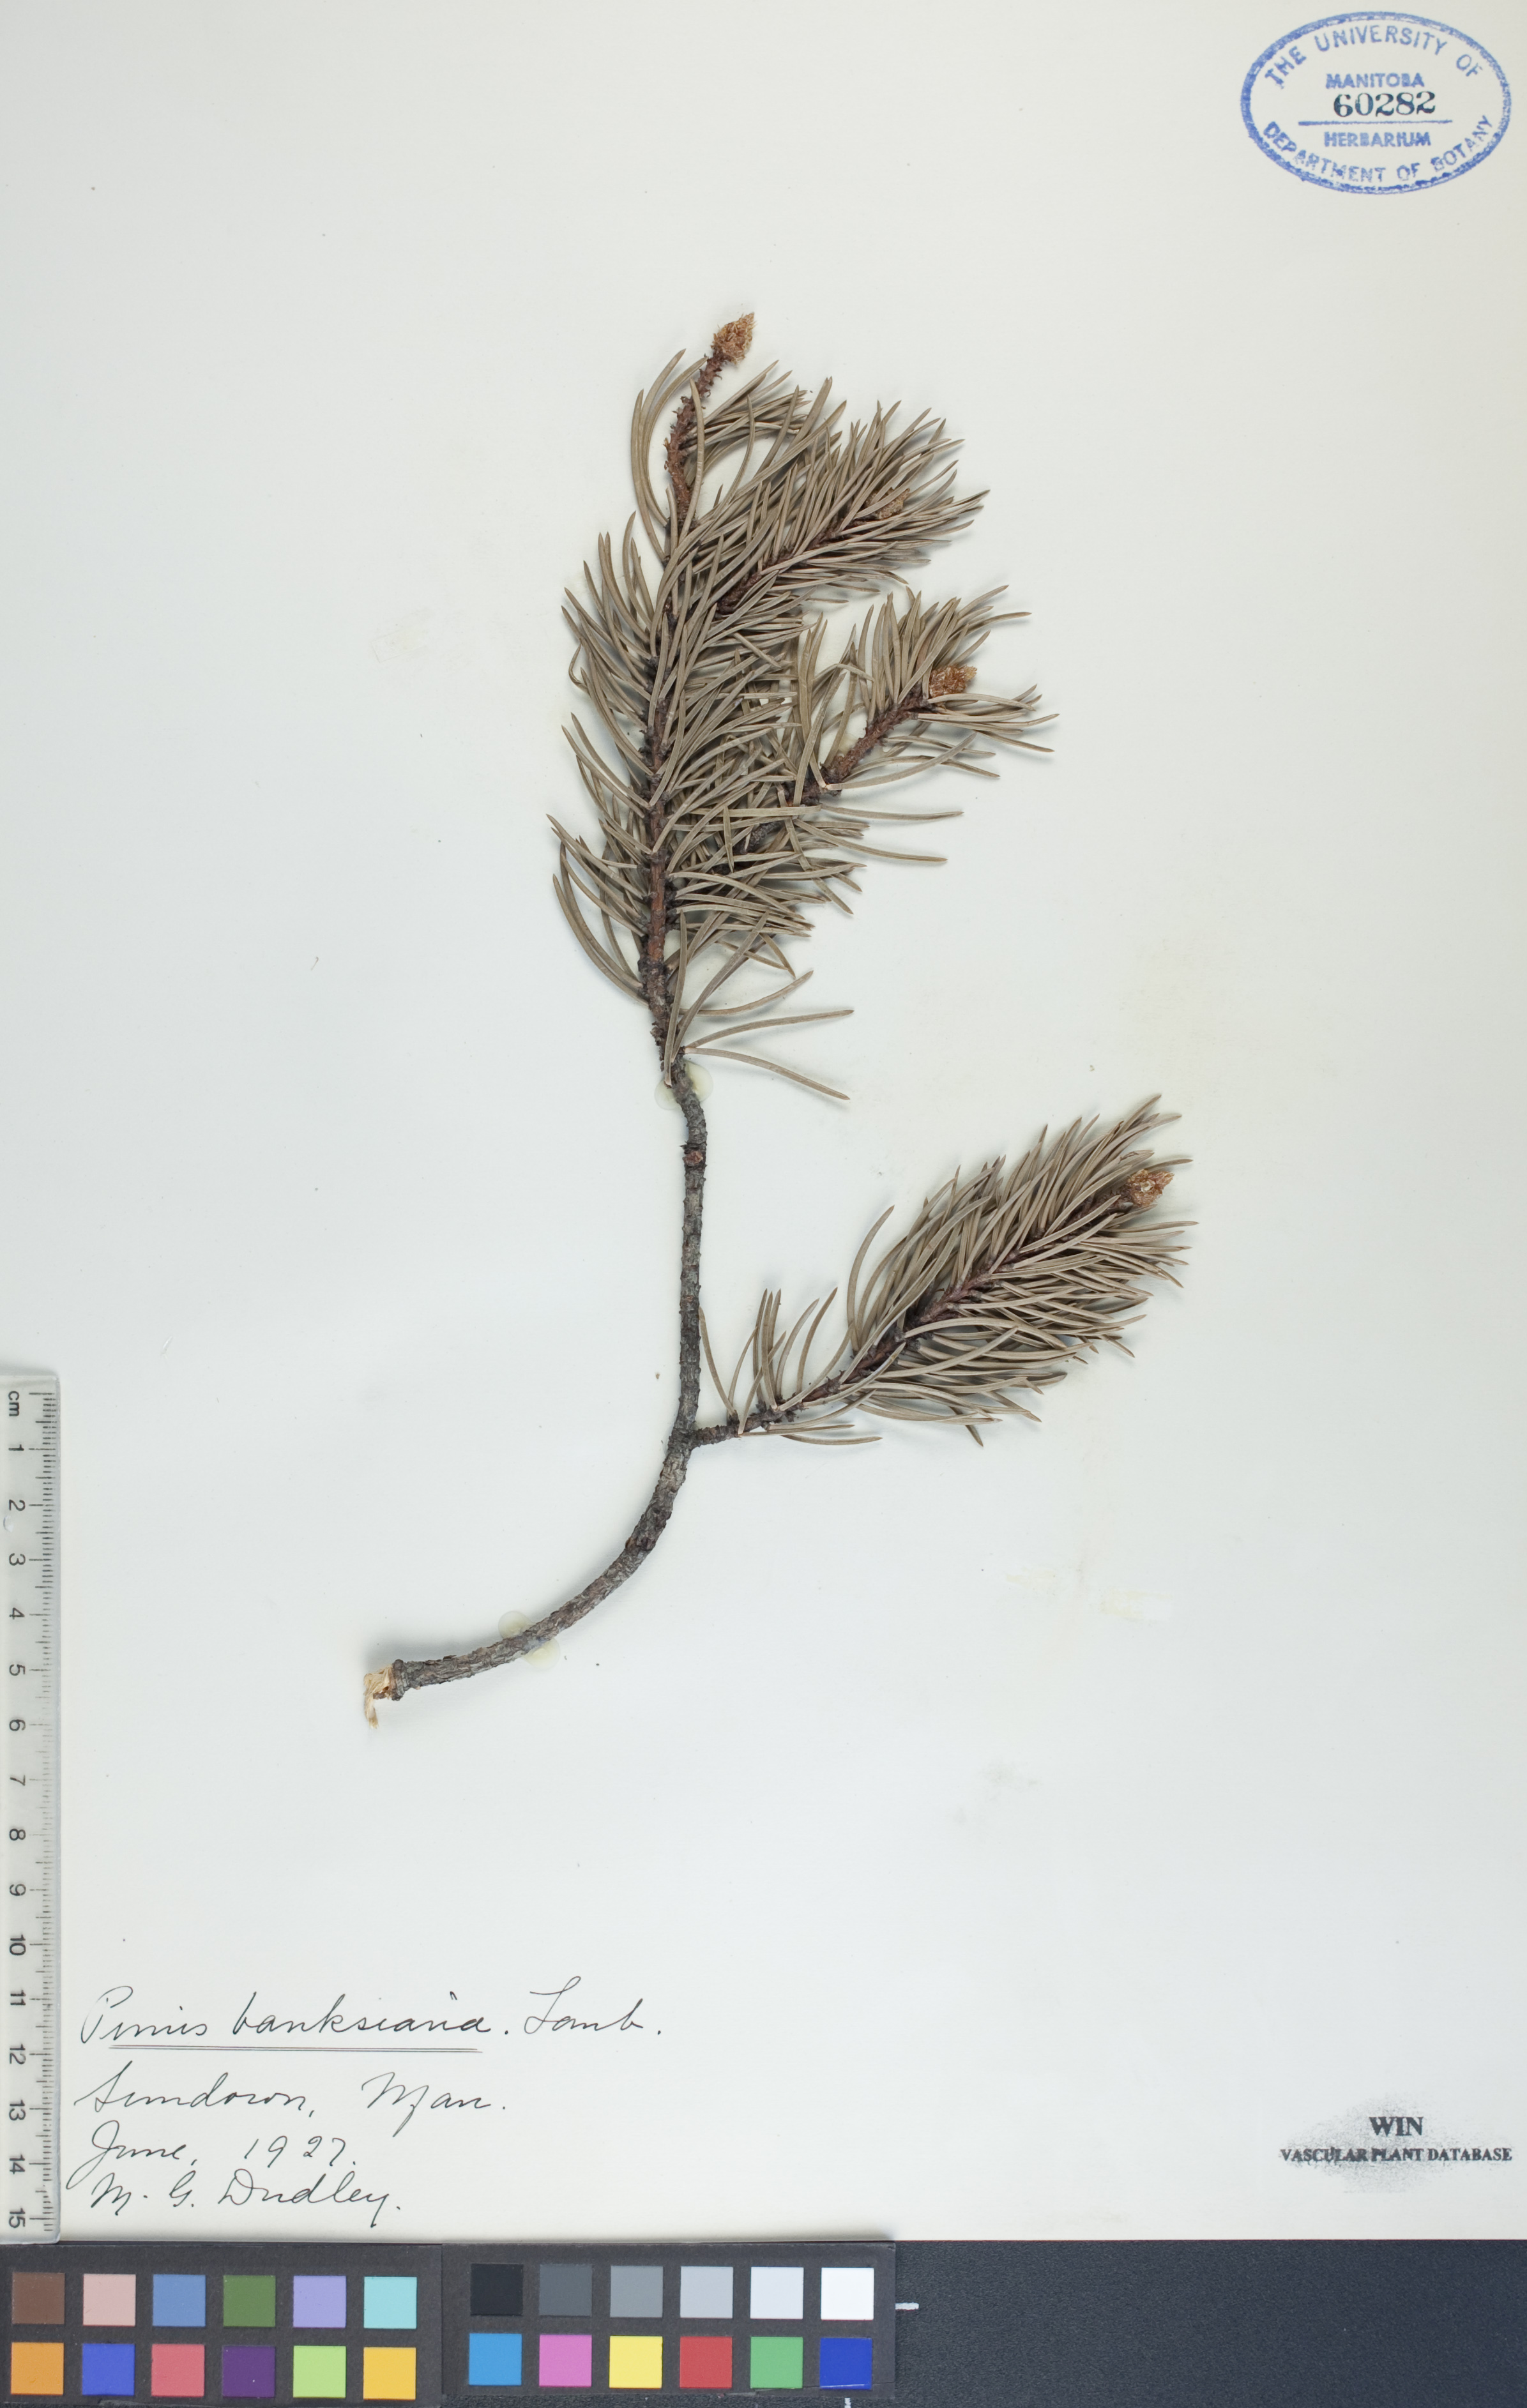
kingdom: Plantae
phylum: Tracheophyta
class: Pinopsida
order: Pinales
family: Pinaceae
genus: Pinus
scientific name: Pinus banksiana
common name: Jack pine
